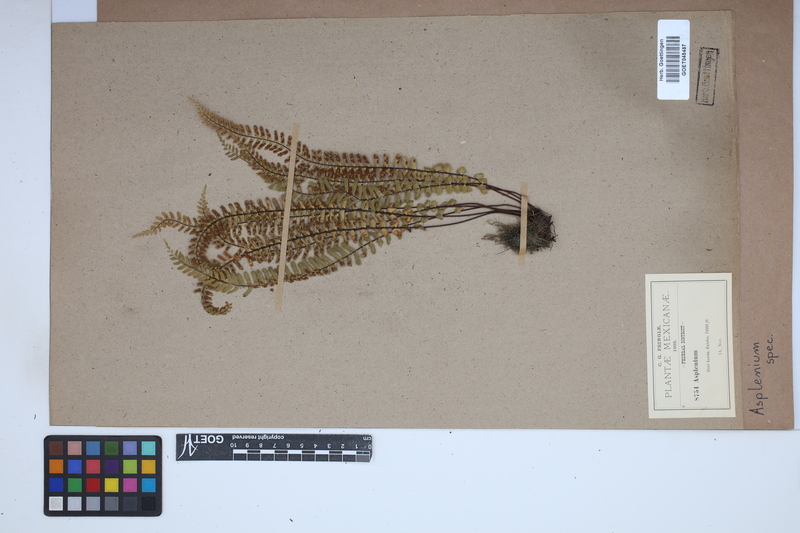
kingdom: Plantae
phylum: Tracheophyta
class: Polypodiopsida
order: Polypodiales
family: Aspleniaceae
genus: Asplenium
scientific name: Asplenium
